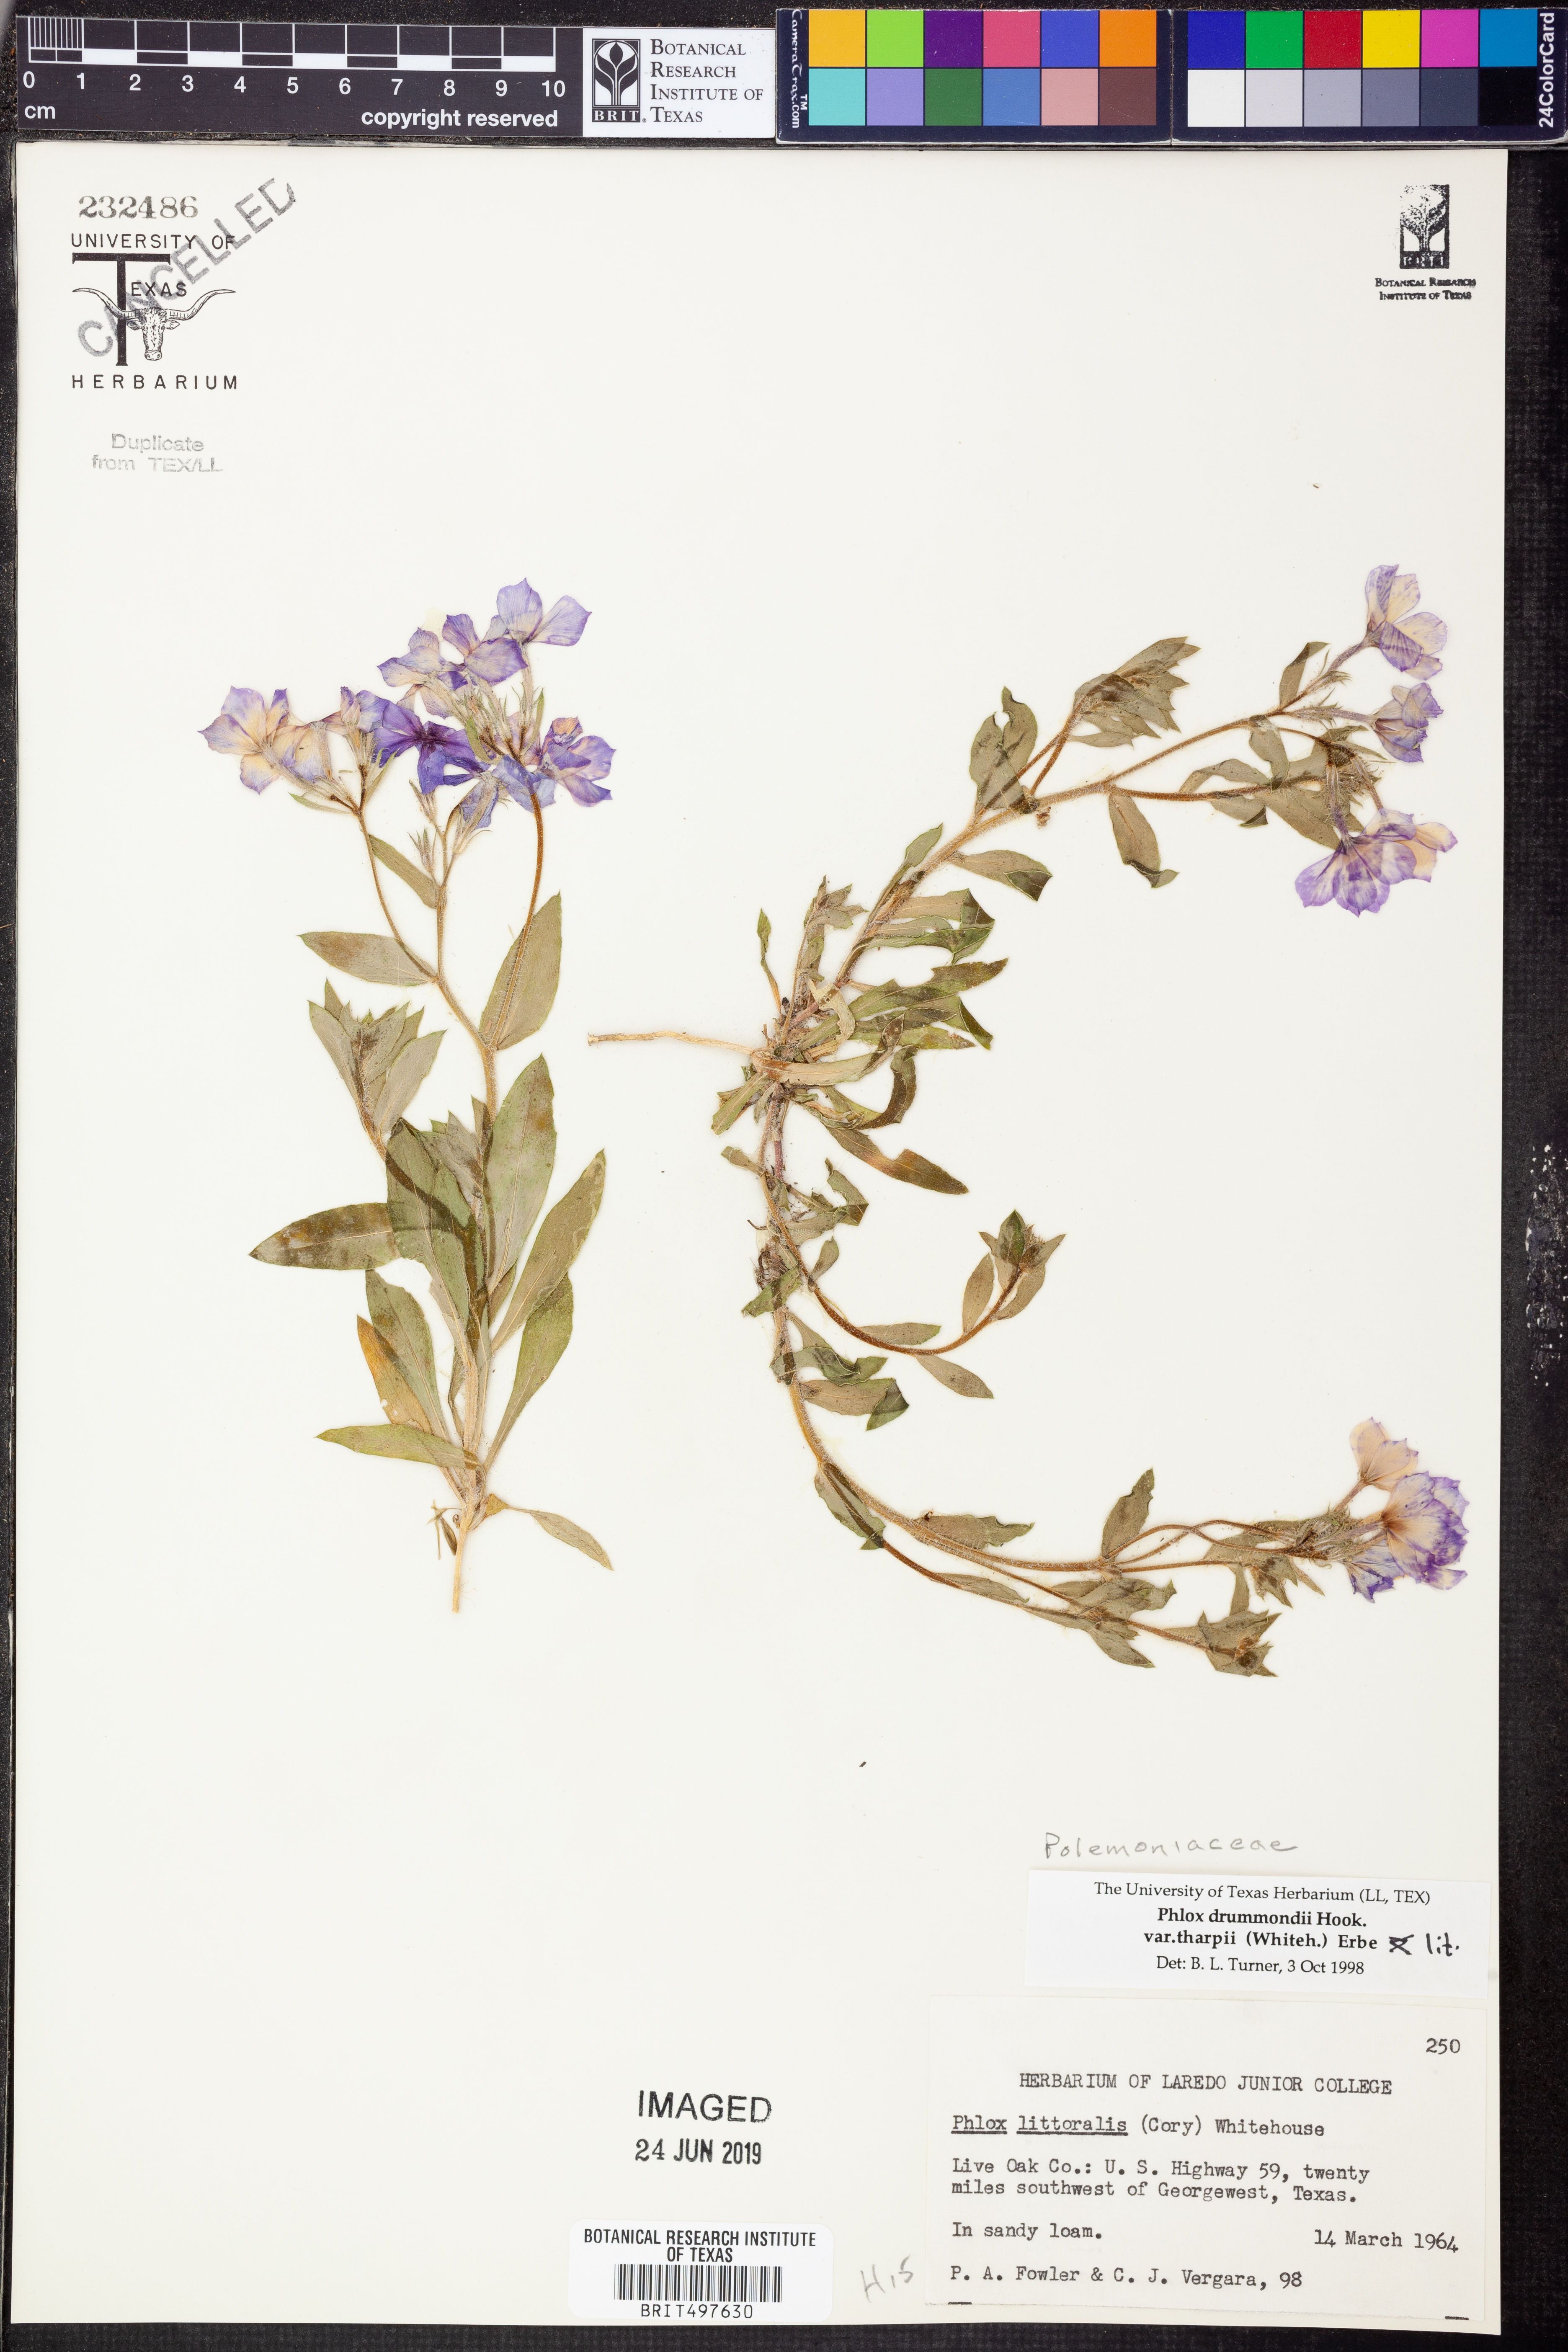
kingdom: Plantae
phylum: Tracheophyta
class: Magnoliopsida
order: Ericales
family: Polemoniaceae
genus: Phlox
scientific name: Phlox glabriflora
